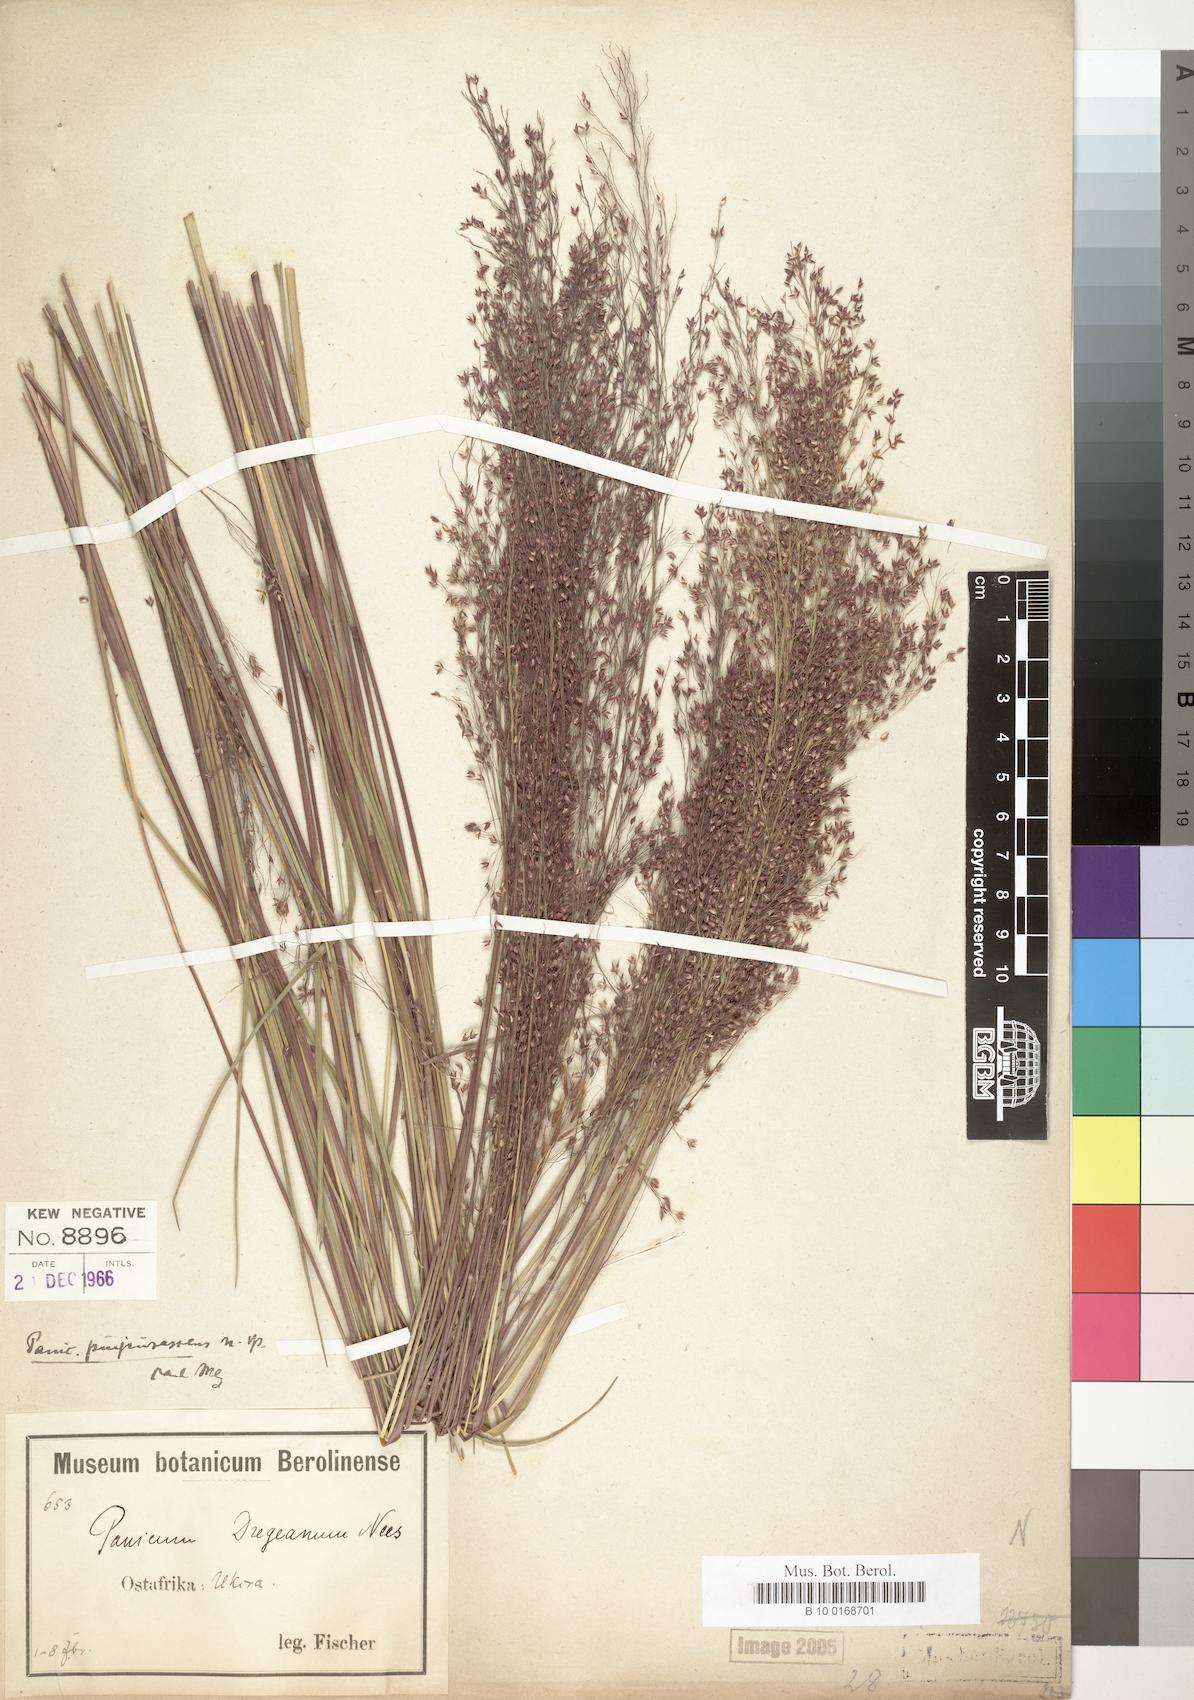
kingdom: Plantae
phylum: Tracheophyta
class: Liliopsida
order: Poales
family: Poaceae
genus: Panicum
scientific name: Panicum fluviicola
